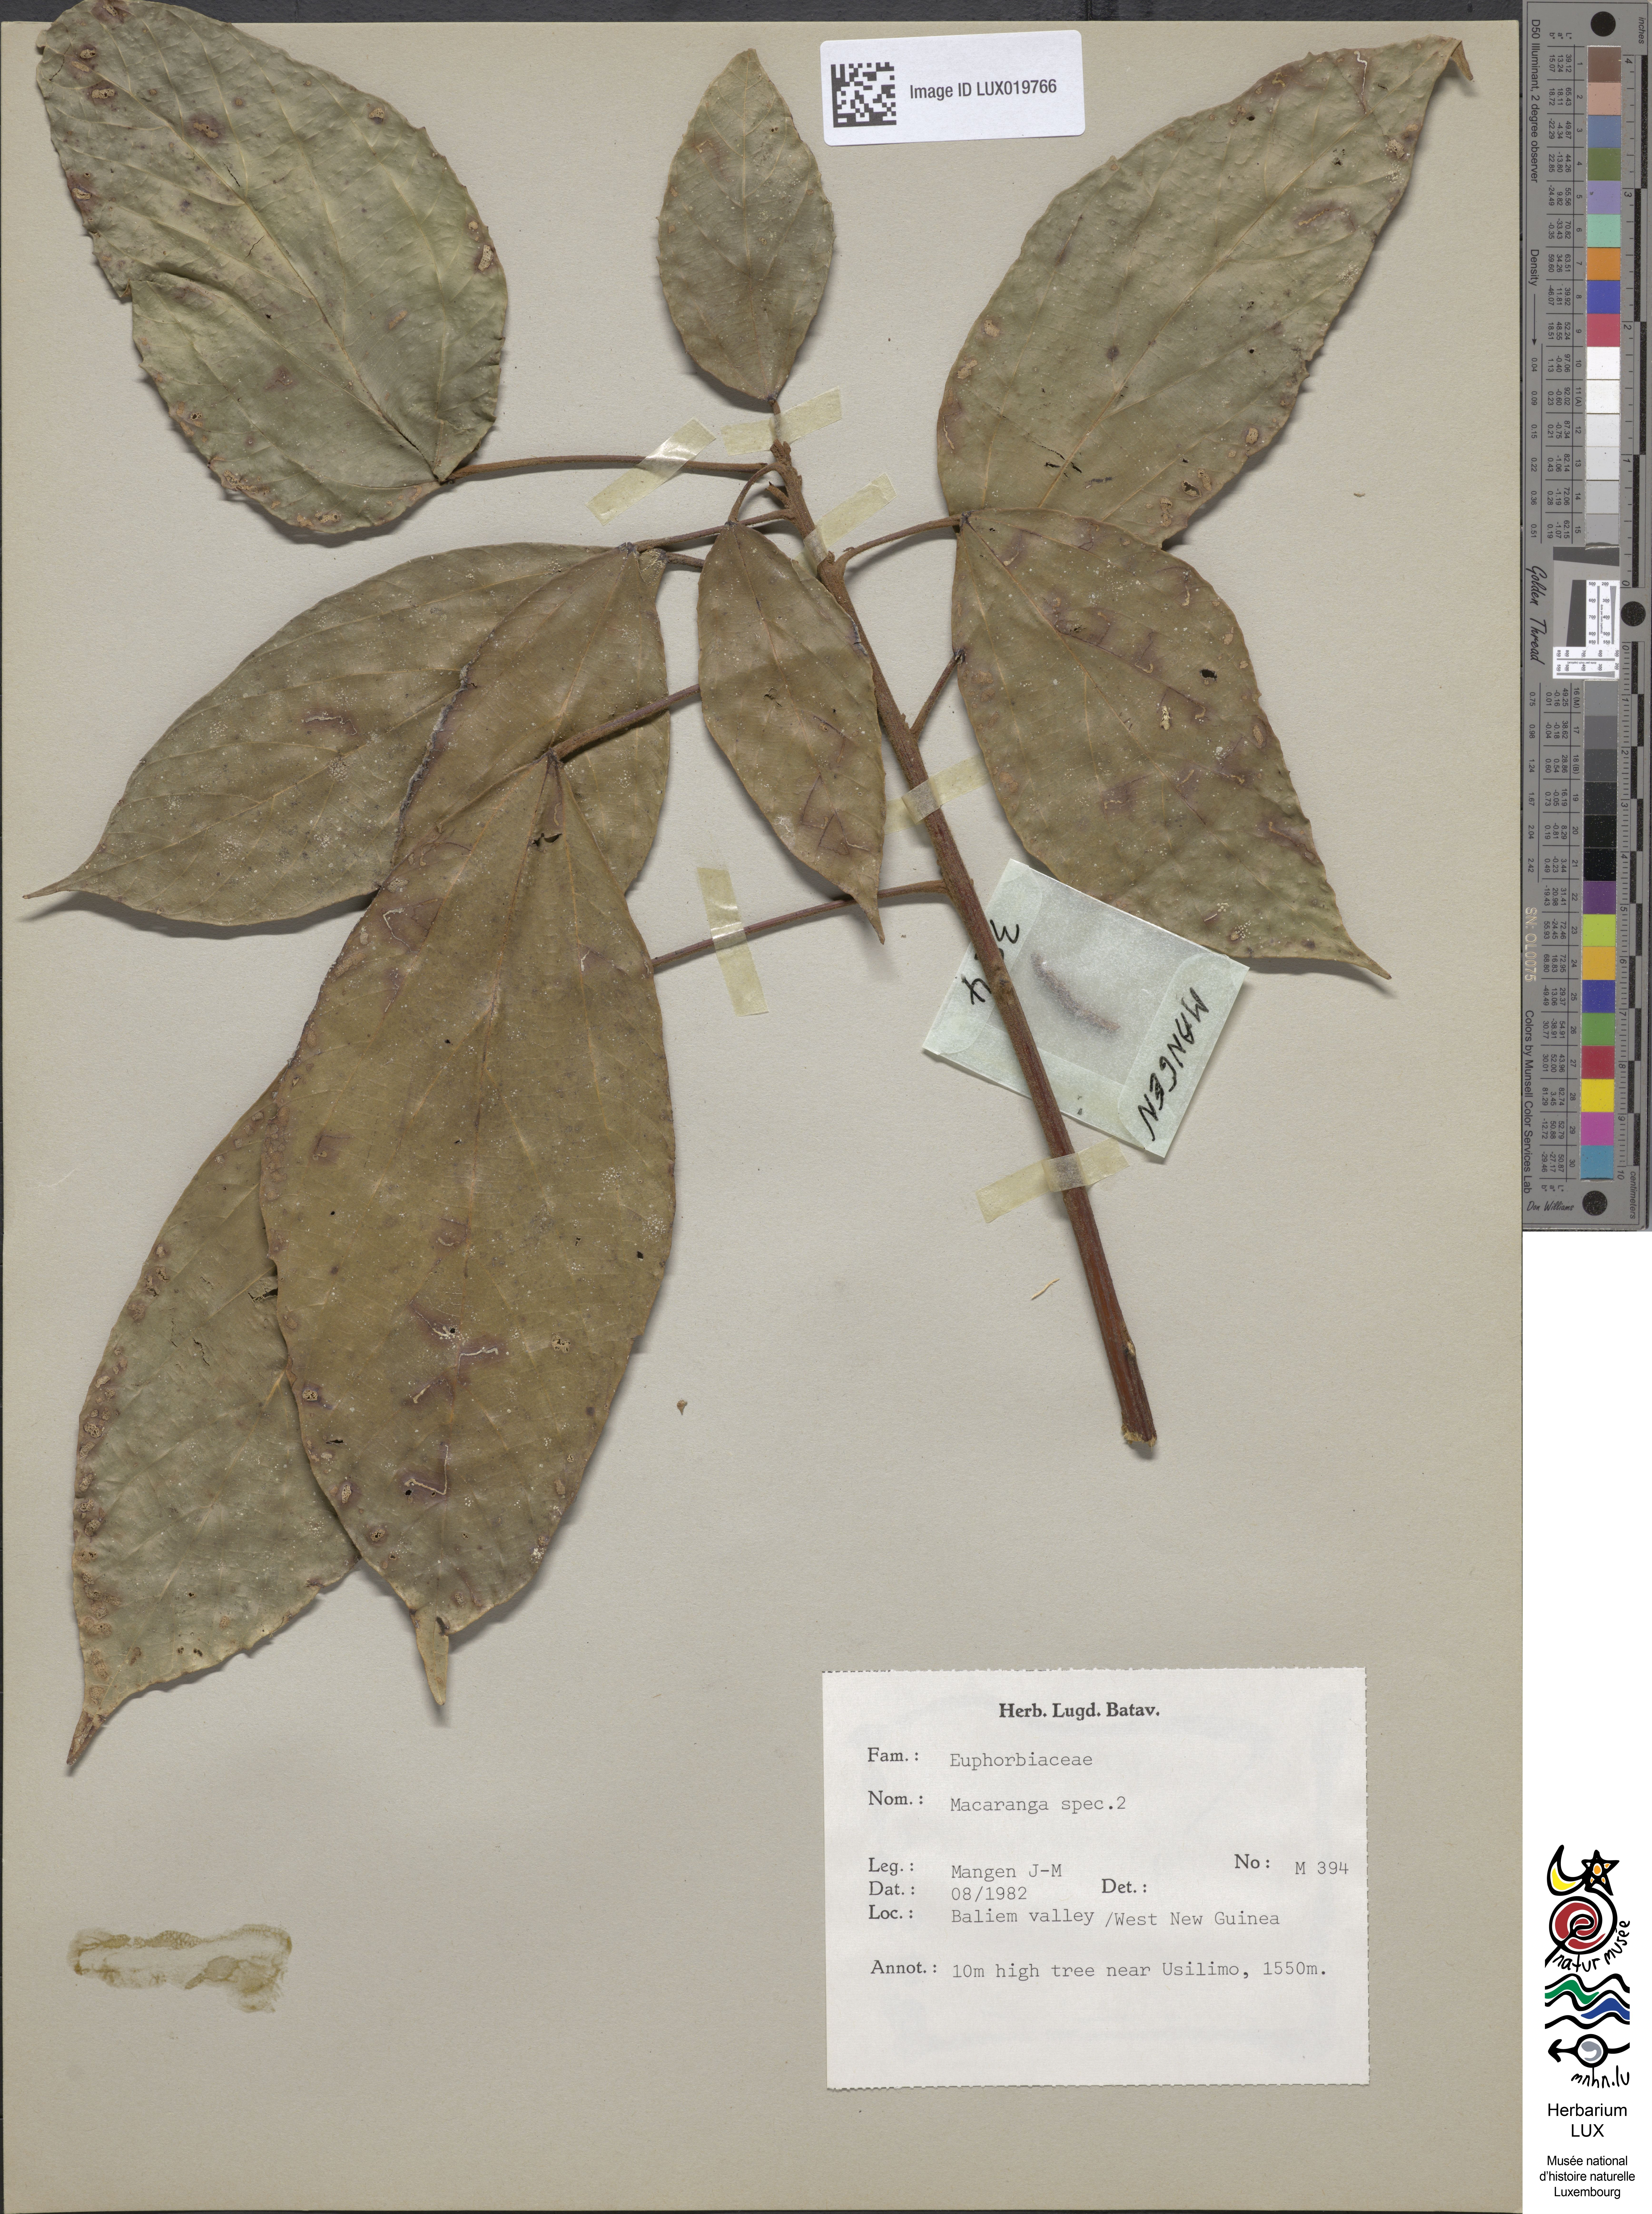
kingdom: Plantae
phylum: Tracheophyta
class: Magnoliopsida
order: Malpighiales
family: Euphorbiaceae
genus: Macaranga
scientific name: Macaranga
